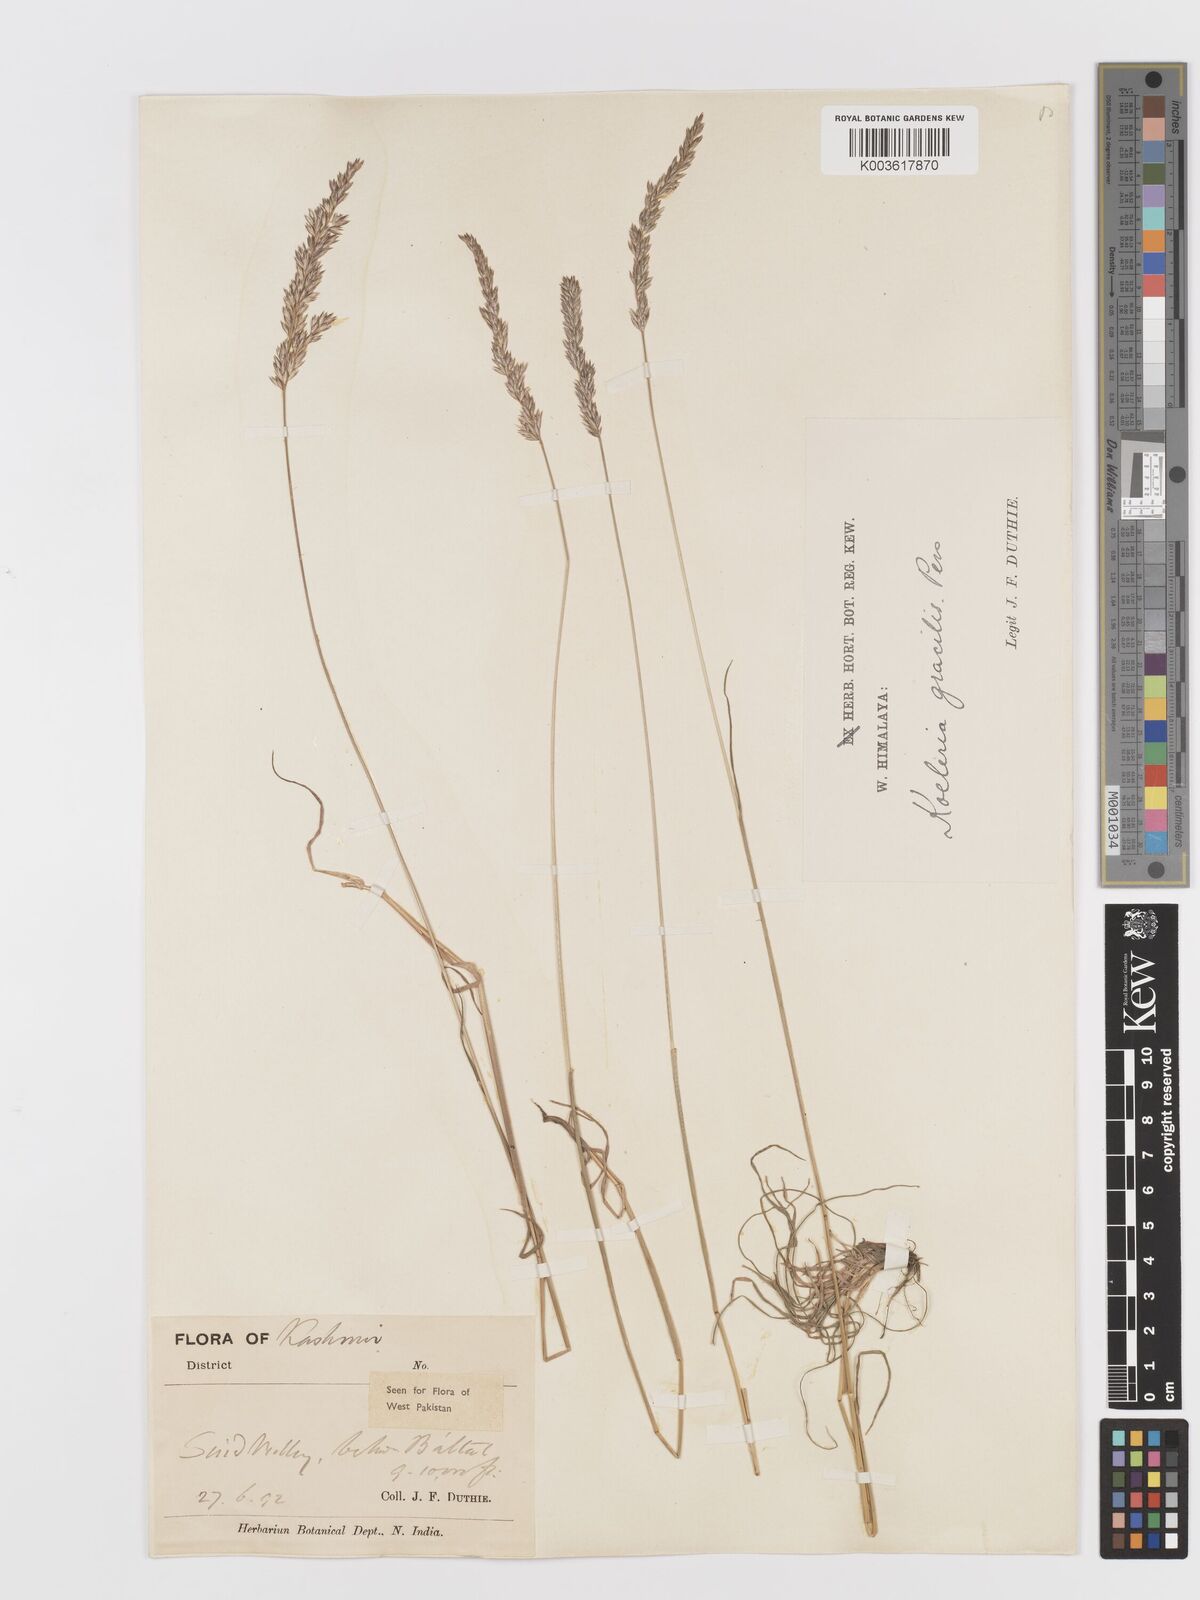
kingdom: Plantae
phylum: Tracheophyta
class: Liliopsida
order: Poales
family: Poaceae
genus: Koeleria
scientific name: Koeleria
